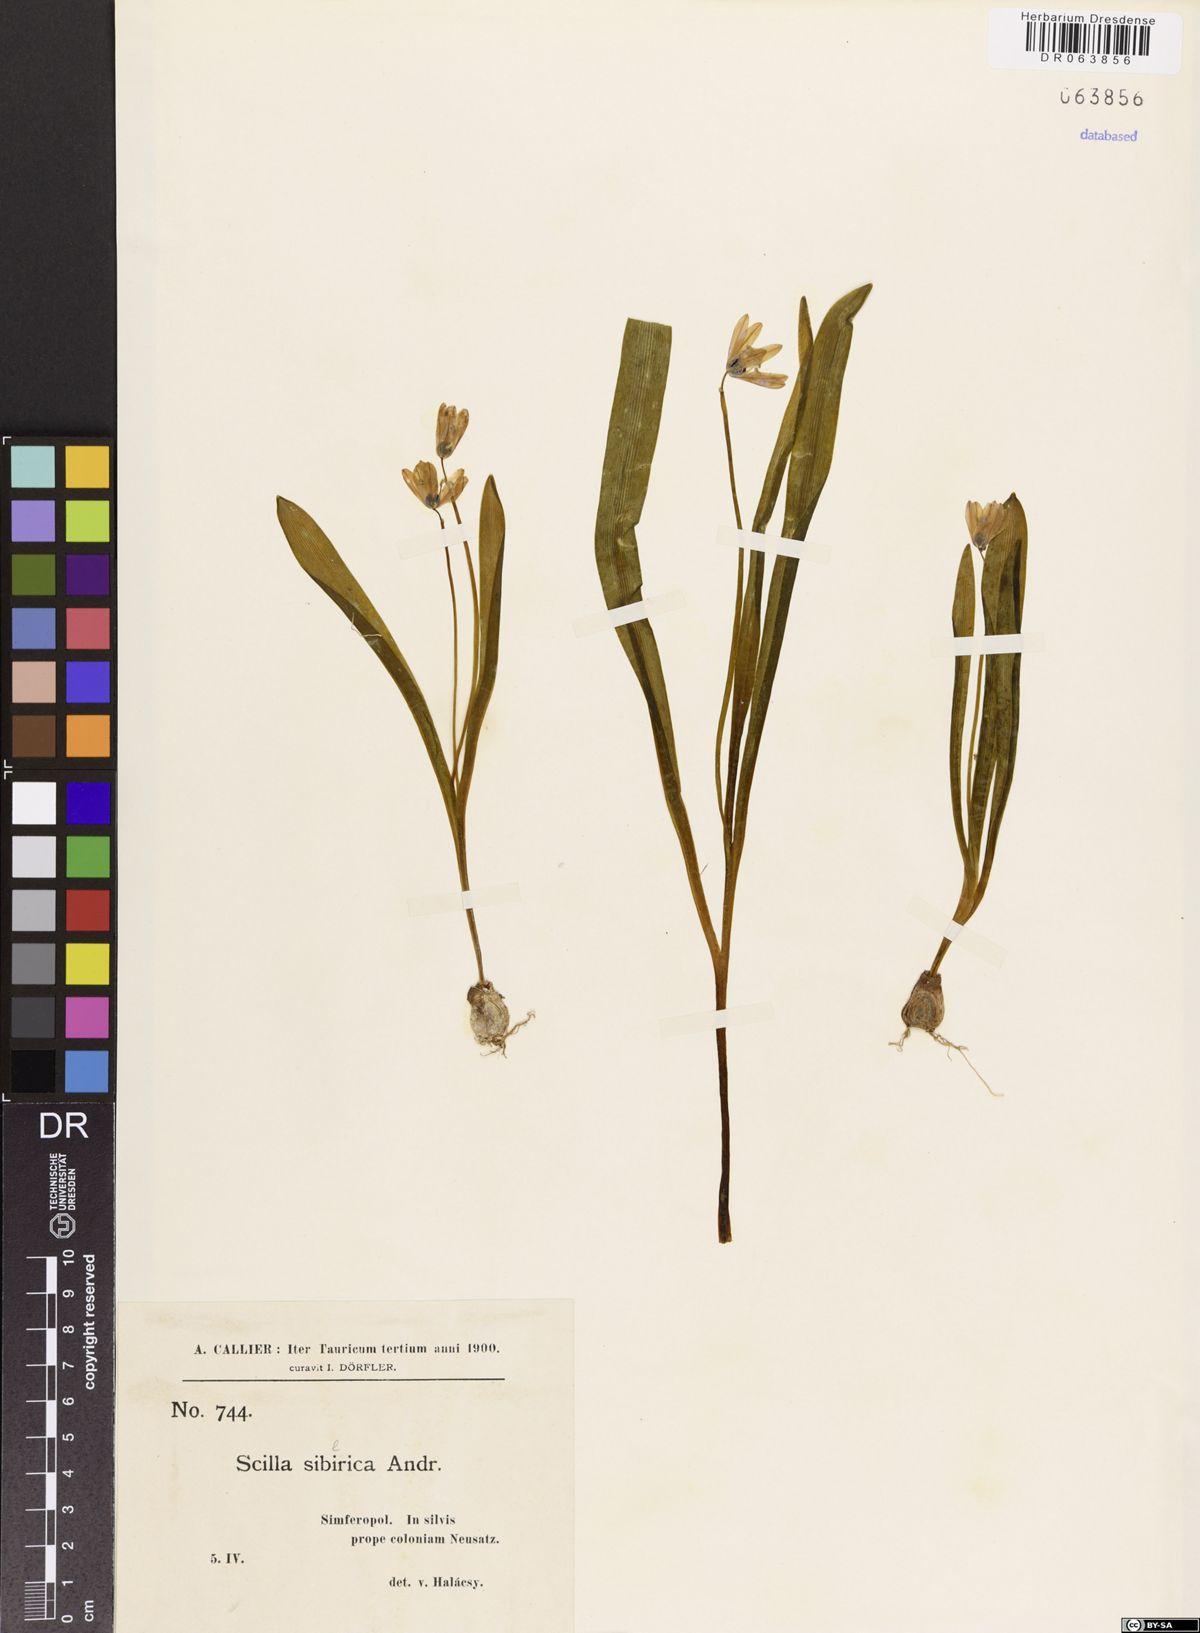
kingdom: Plantae
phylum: Tracheophyta
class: Liliopsida
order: Asparagales
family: Asparagaceae
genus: Scilla
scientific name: Scilla siberica
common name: Siberian squill
